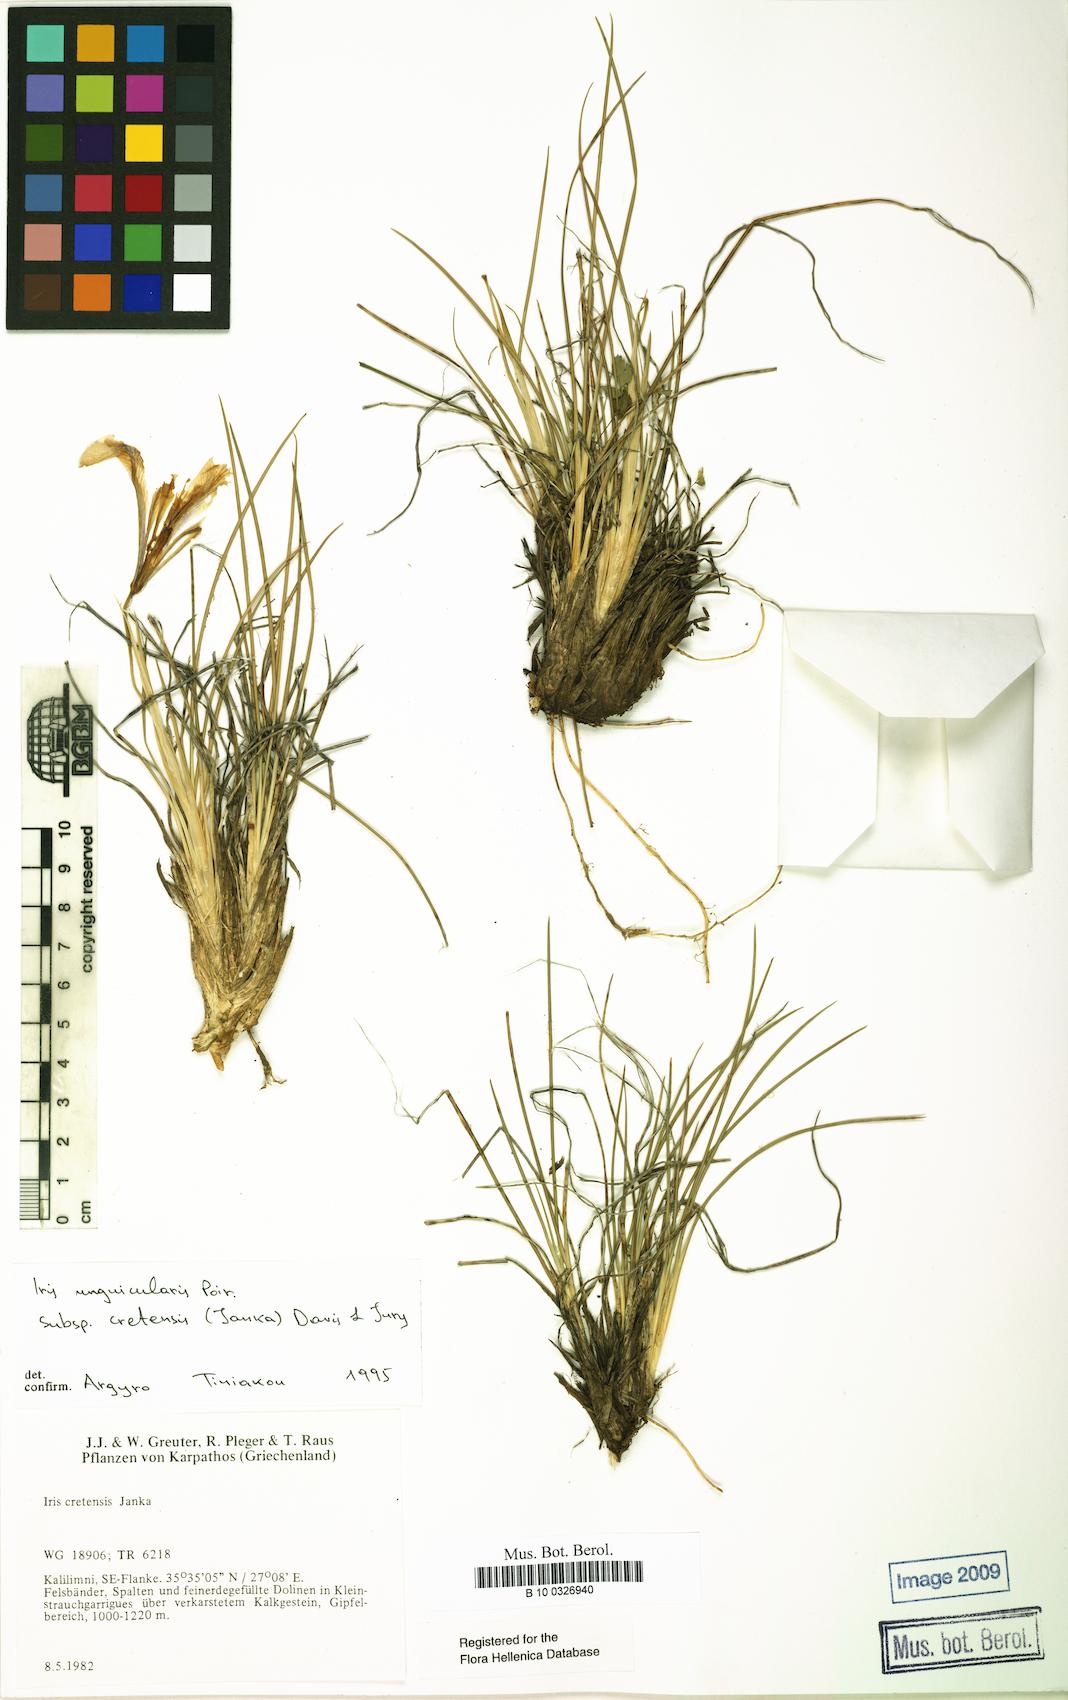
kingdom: Plantae
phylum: Tracheophyta
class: Liliopsida
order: Asparagales
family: Iridaceae
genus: Iris
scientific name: Iris unguicularis
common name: Algerian iris
